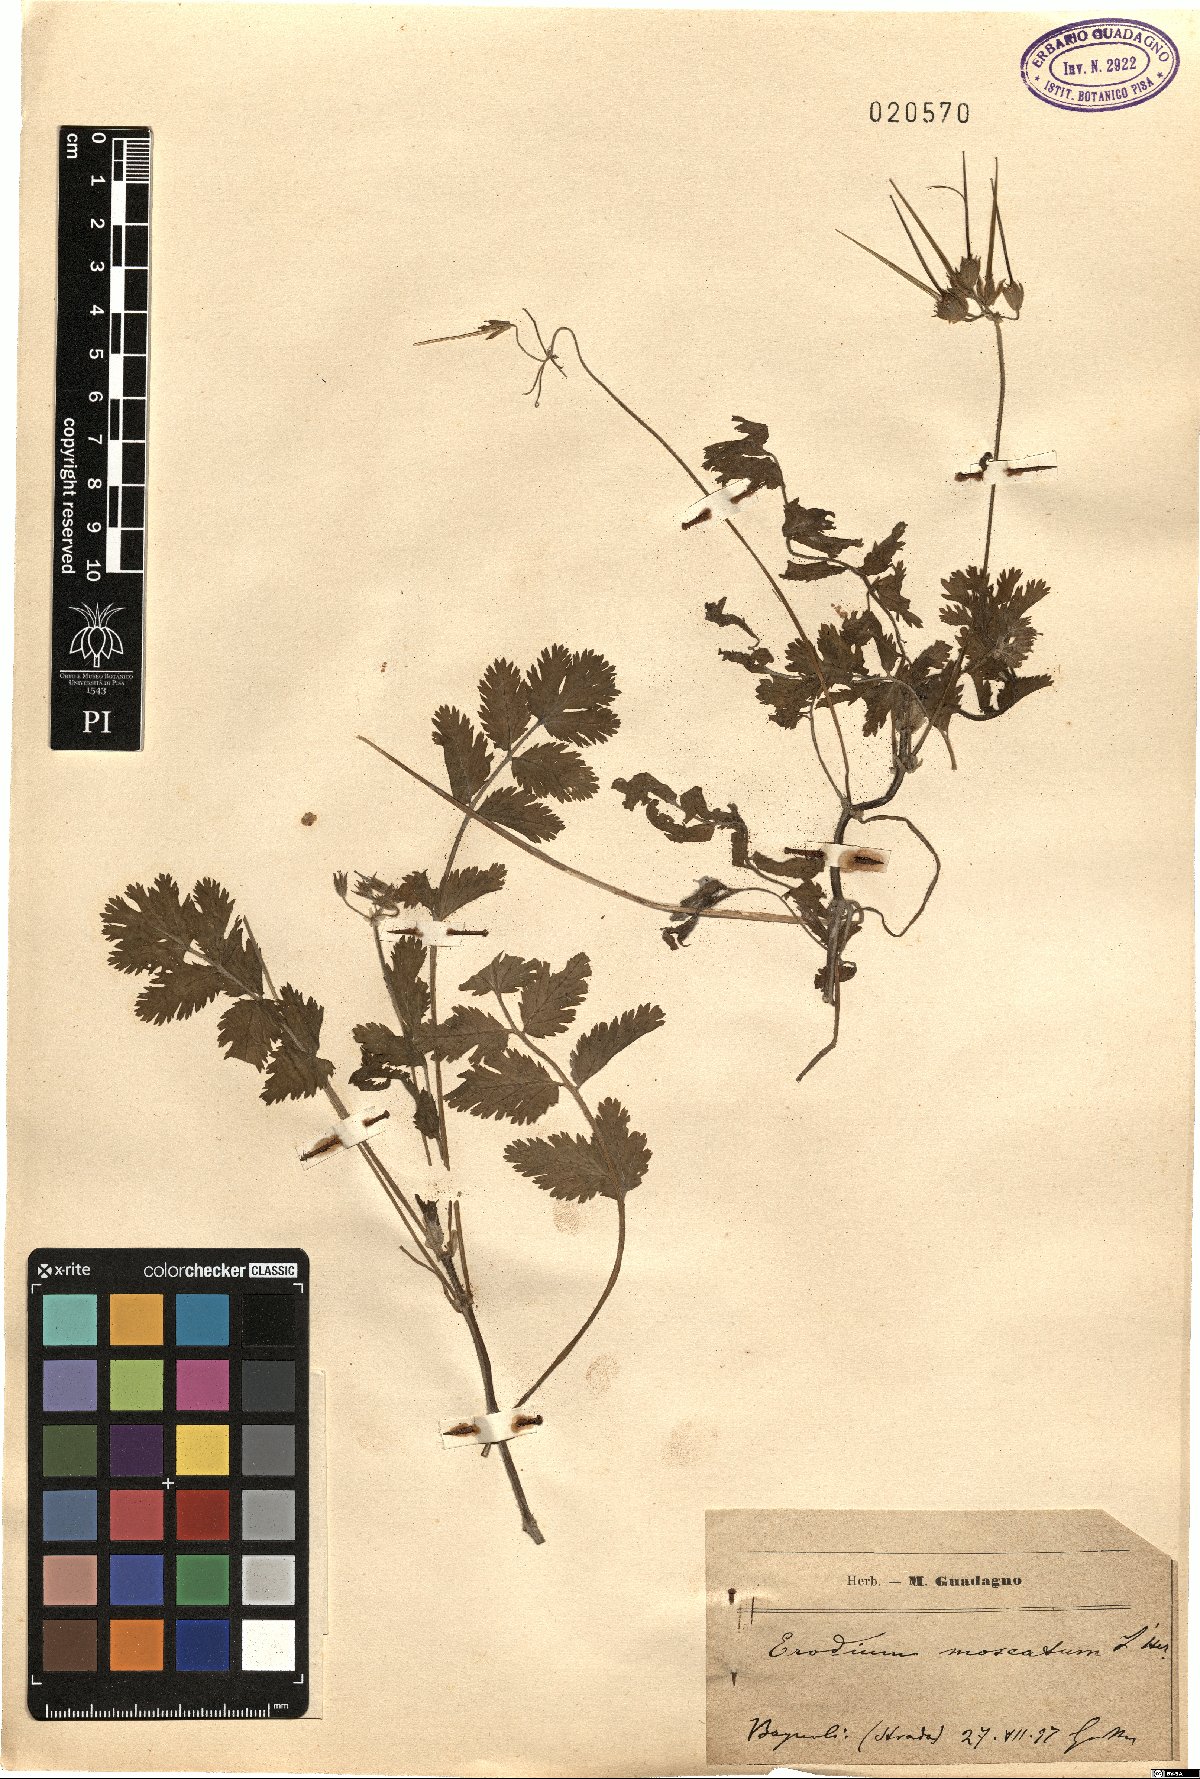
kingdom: Plantae
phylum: Tracheophyta
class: Magnoliopsida
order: Geraniales
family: Geraniaceae
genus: Erodium
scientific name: Erodium moschatum
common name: Musk stork's-bill
